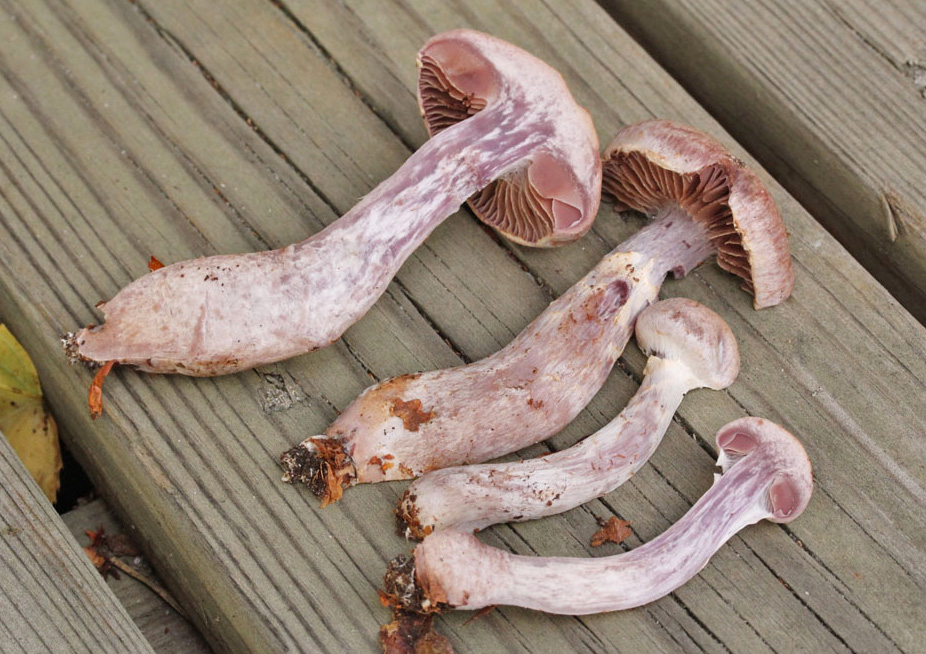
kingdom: Fungi
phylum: Basidiomycota
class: Agaricomycetes
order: Agaricales
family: Cortinariaceae
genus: Cortinarius
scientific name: Cortinarius torvus
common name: champignonagtig slørhat
